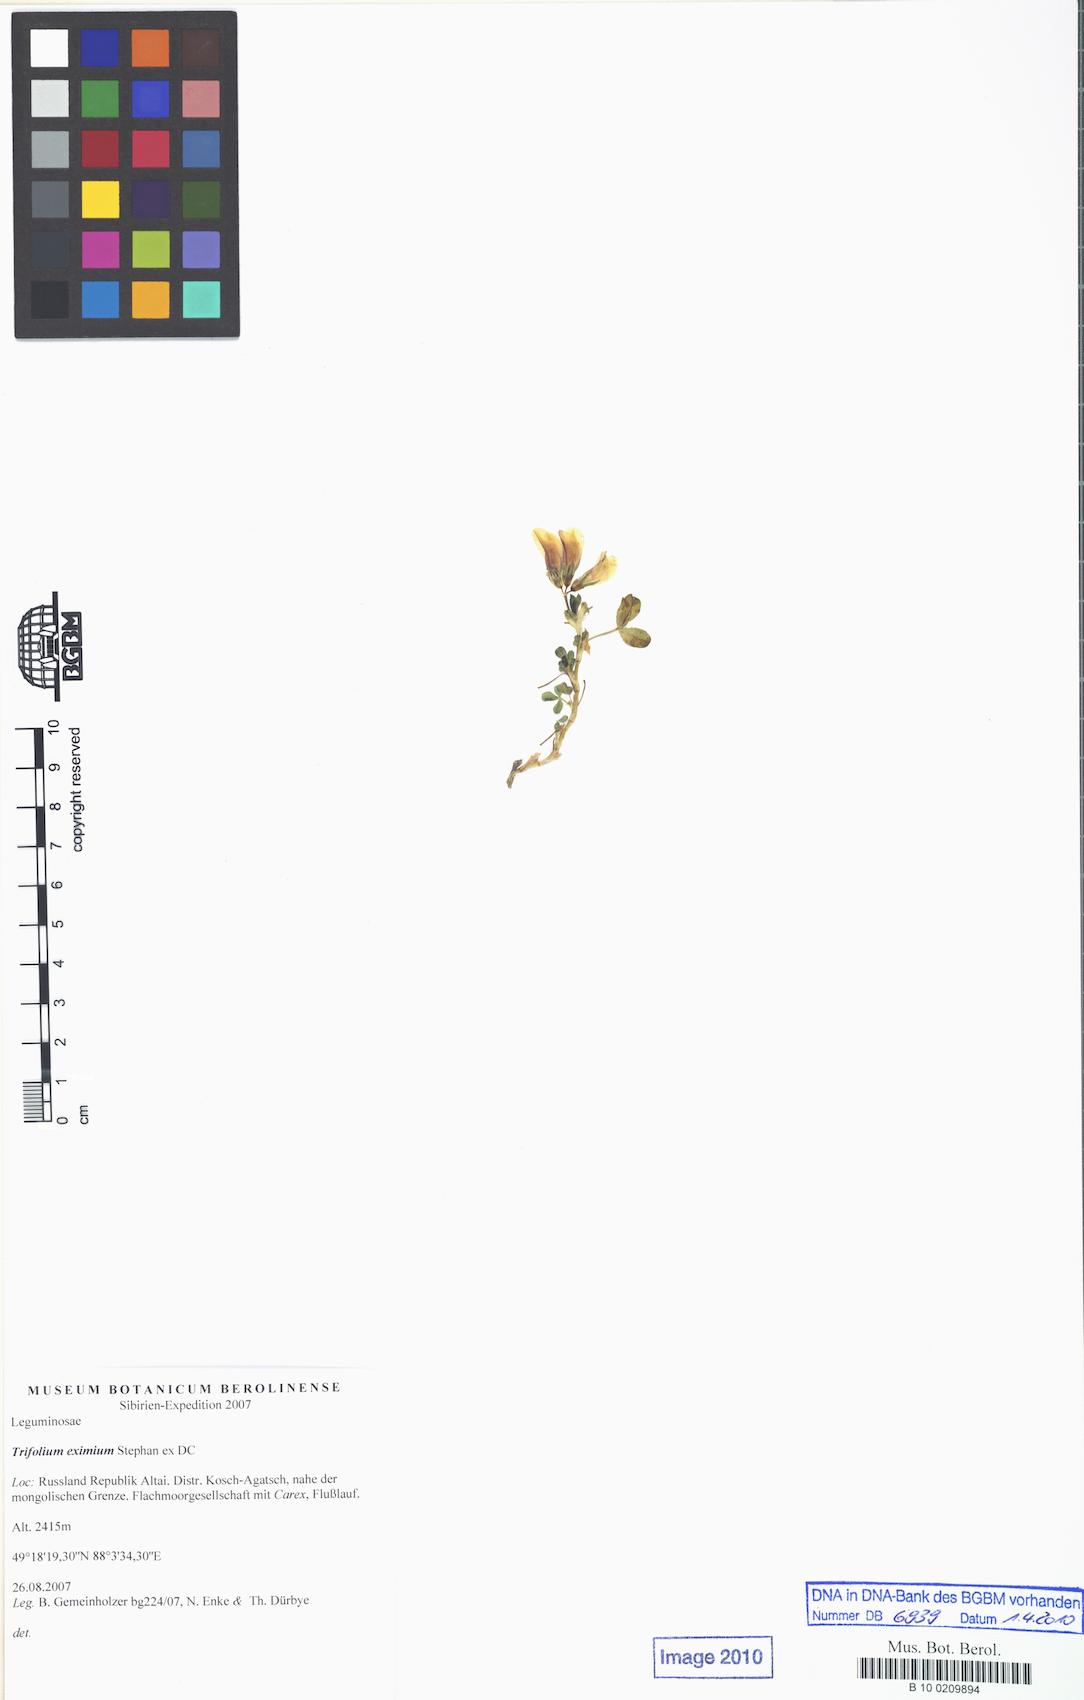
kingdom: Plantae
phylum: Tracheophyta
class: Magnoliopsida
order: Fabales
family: Fabaceae
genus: Trifolium
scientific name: Trifolium eximium
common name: Excellent clover
